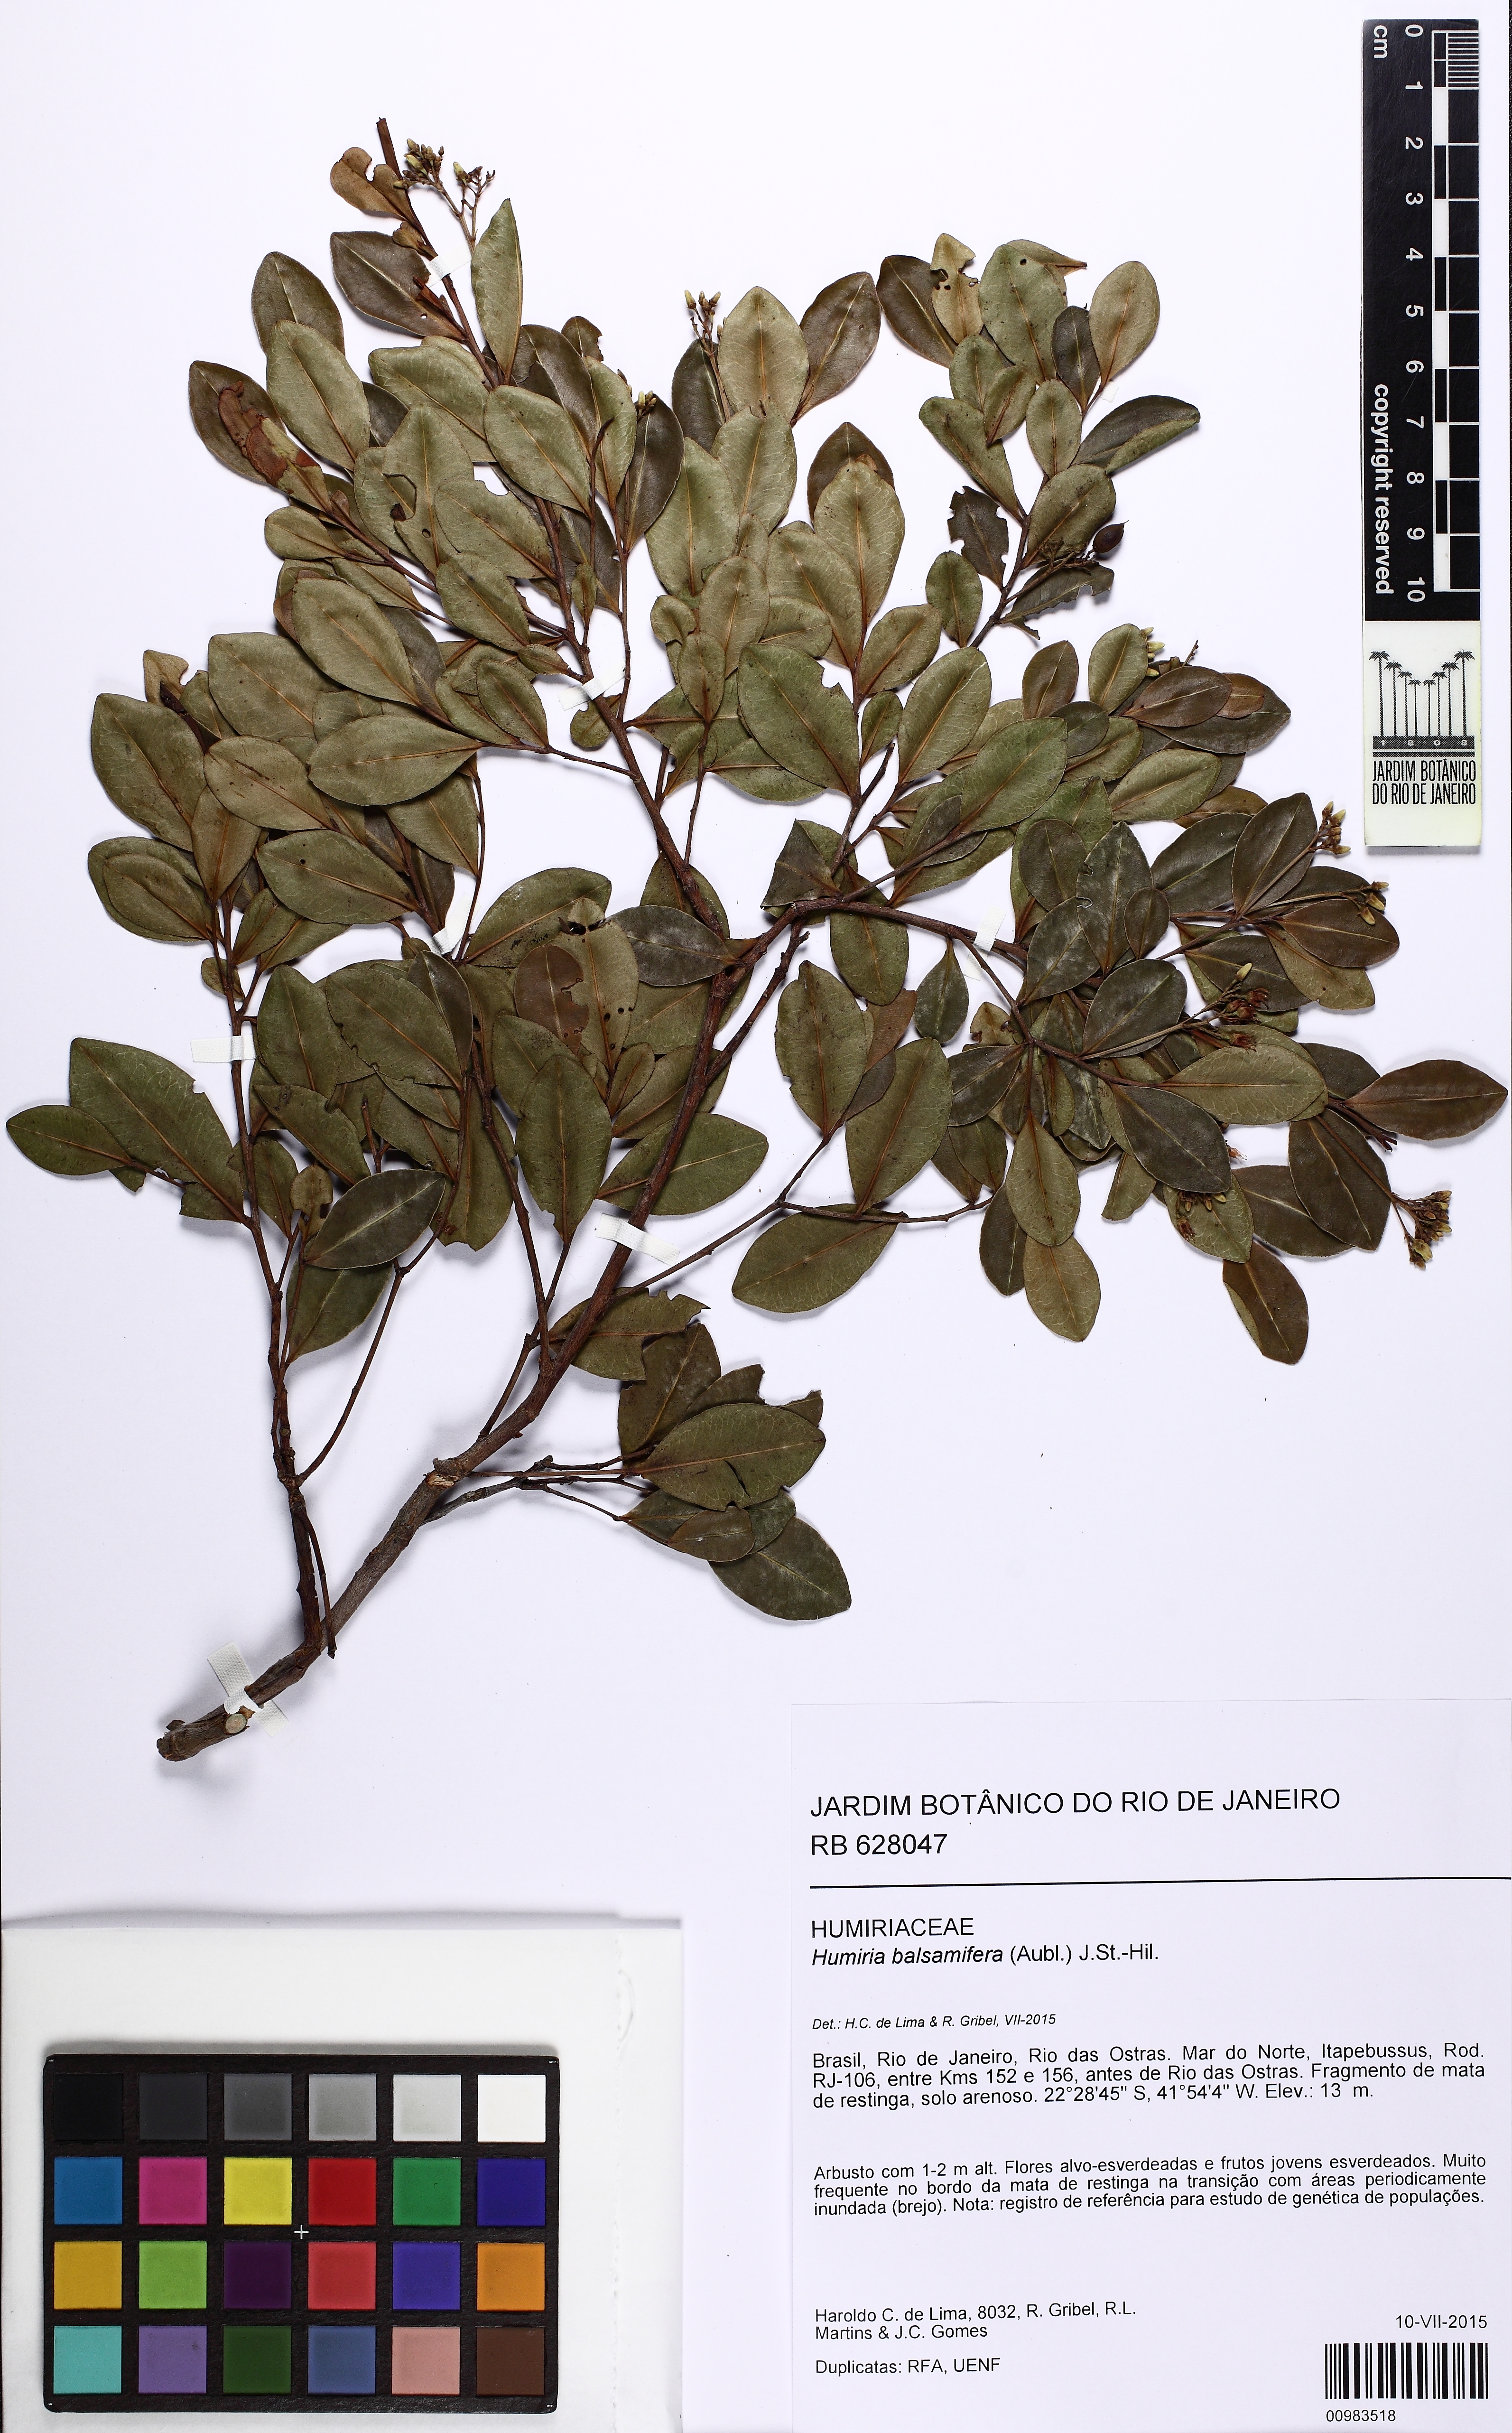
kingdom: Plantae
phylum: Tracheophyta
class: Magnoliopsida
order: Malpighiales
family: Humiriaceae
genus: Humiria
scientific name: Humiria balsamifera
